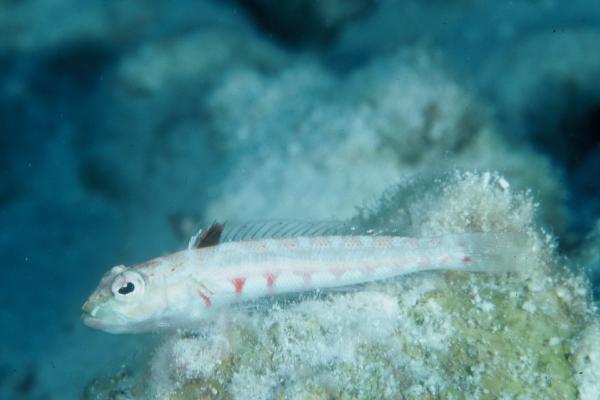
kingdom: Animalia
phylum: Chordata
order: Perciformes
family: Pinguipedidae
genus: Parapercis
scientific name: Parapercis schauinslandii
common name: Redspotted sandperch
